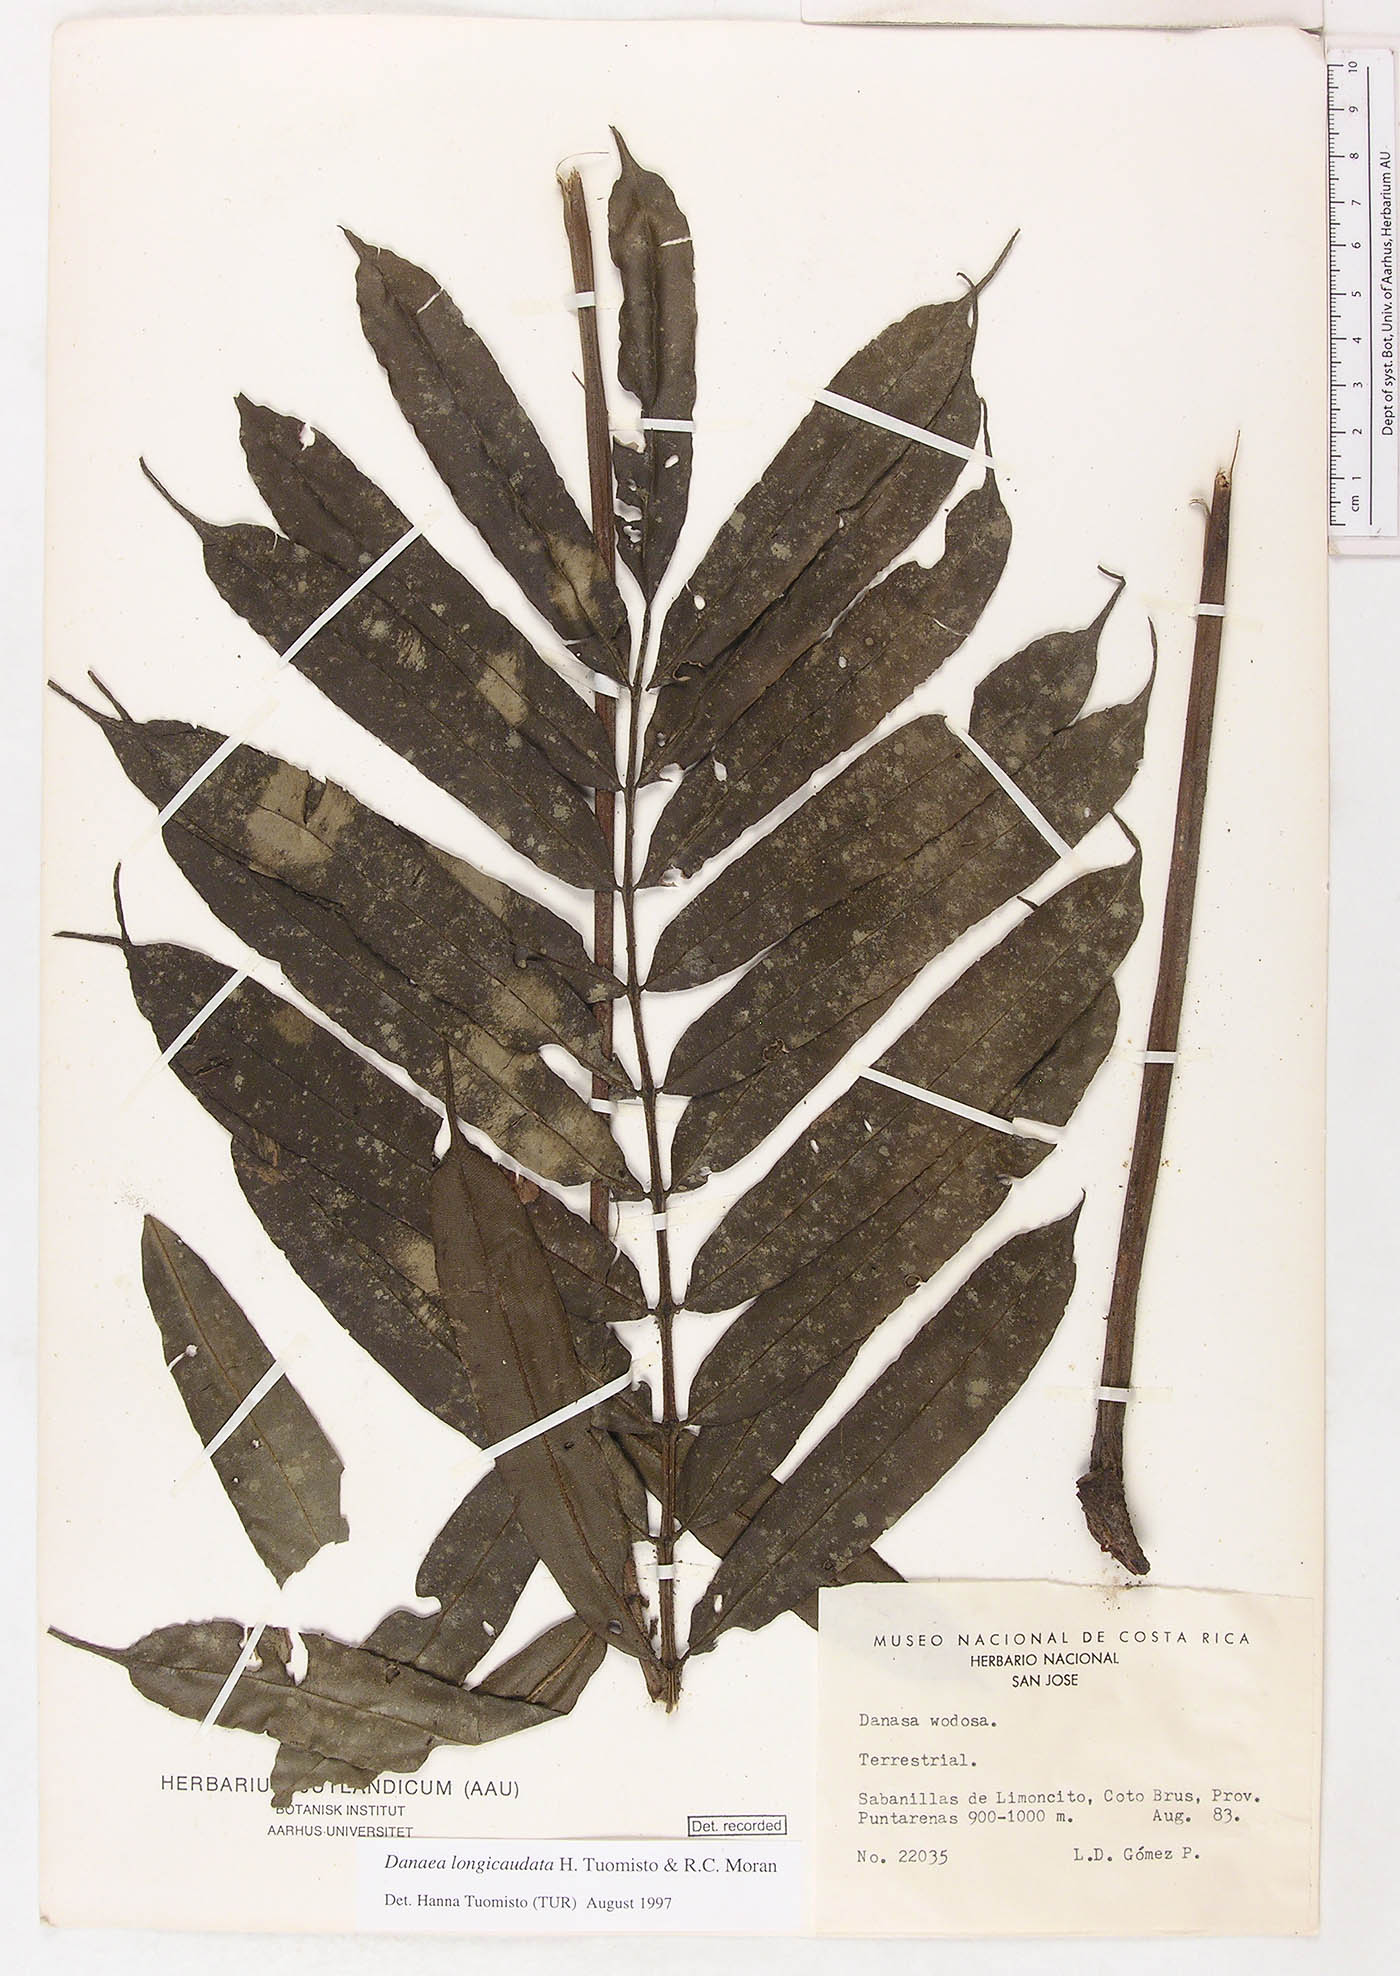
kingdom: Plantae
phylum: Tracheophyta
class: Polypodiopsida
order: Marattiales
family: Marattiaceae
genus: Danaea
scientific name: Danaea longicaudata
